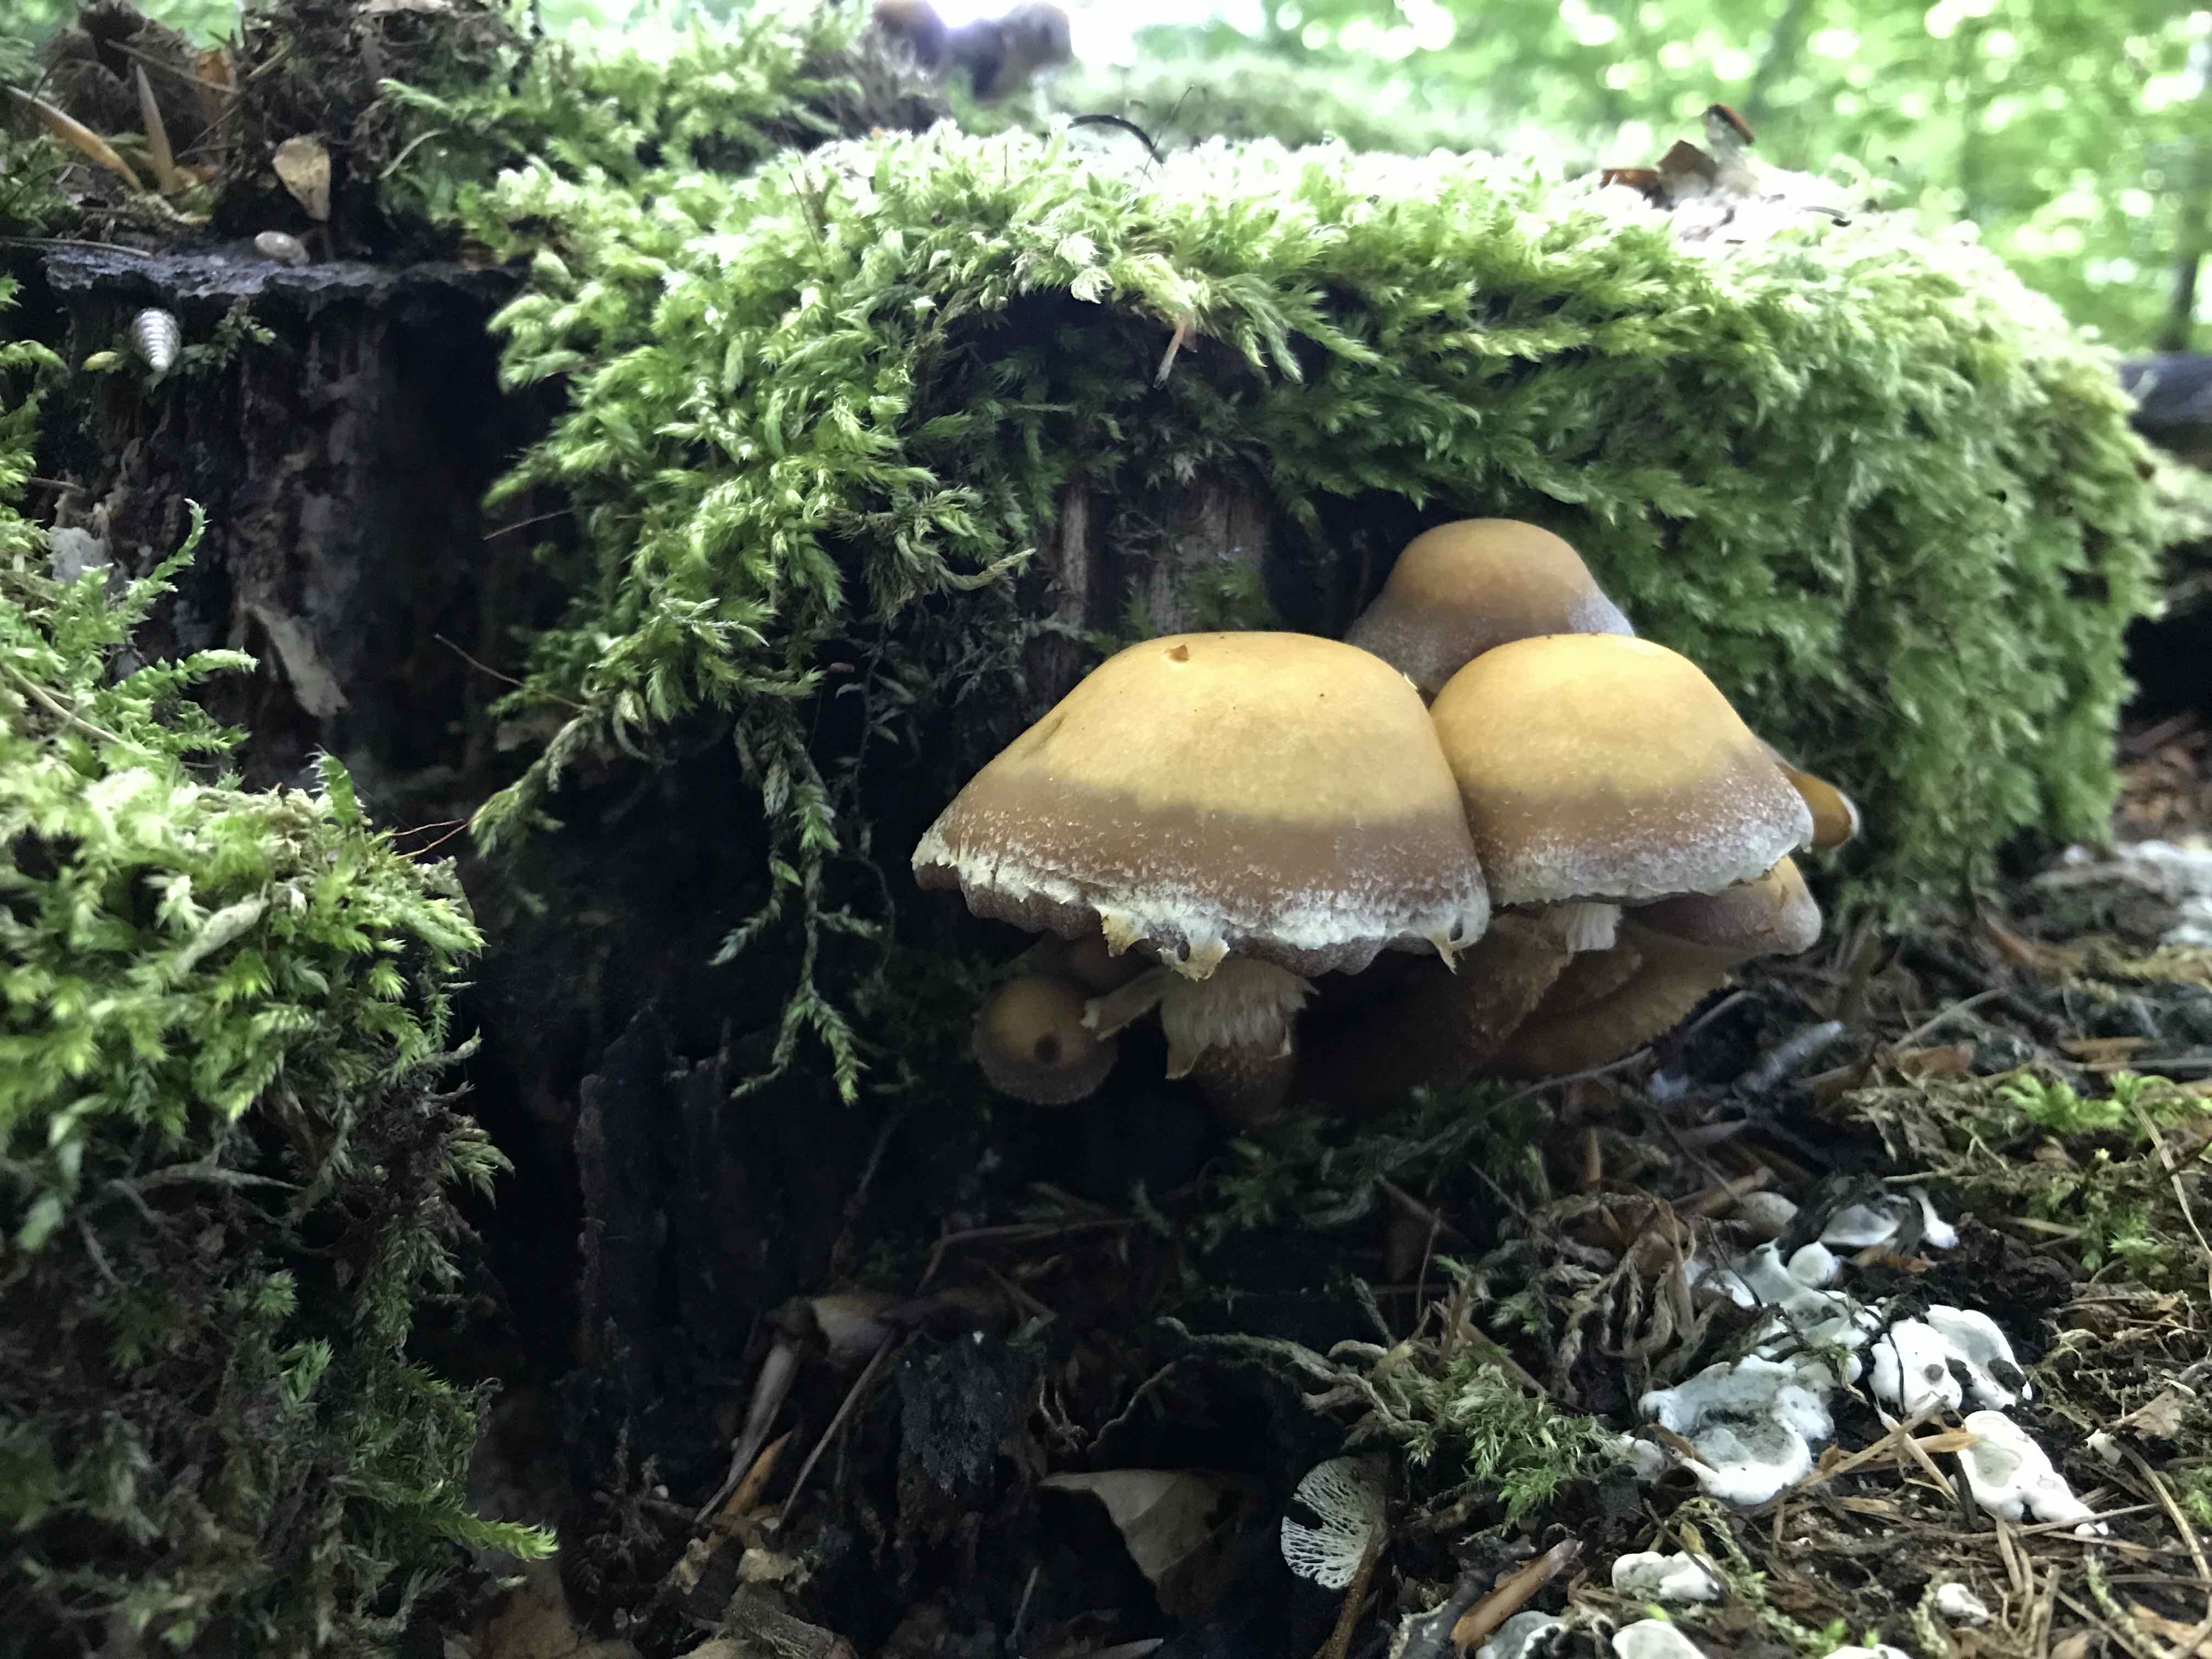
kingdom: Fungi
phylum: Basidiomycota
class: Agaricomycetes
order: Agaricales
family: Strophariaceae
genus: Kuehneromyces
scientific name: Kuehneromyces mutabilis
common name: foranderlig skælhat
